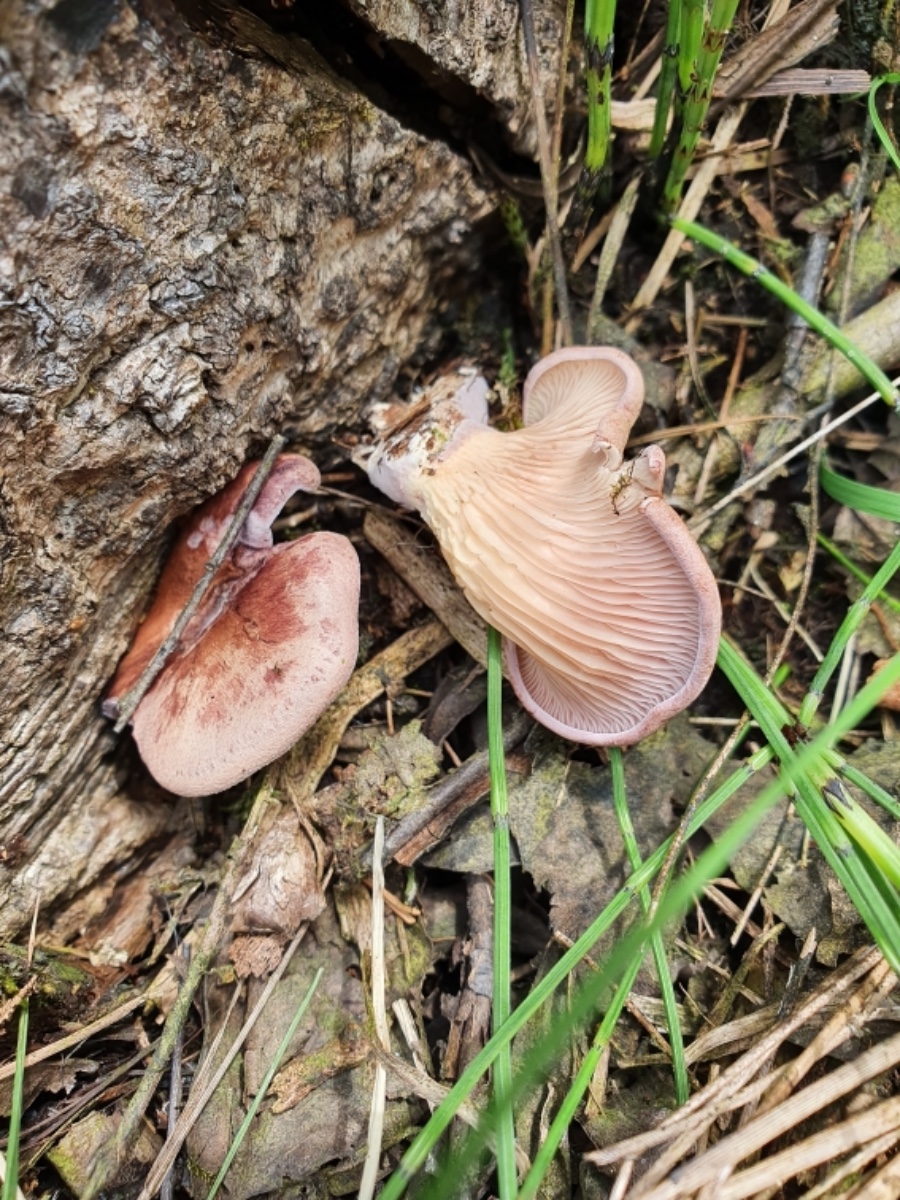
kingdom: Fungi
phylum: Basidiomycota
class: Agaricomycetes
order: Polyporales
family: Panaceae
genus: Panus
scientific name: Panus conchatus
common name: filtstokket læderhat
